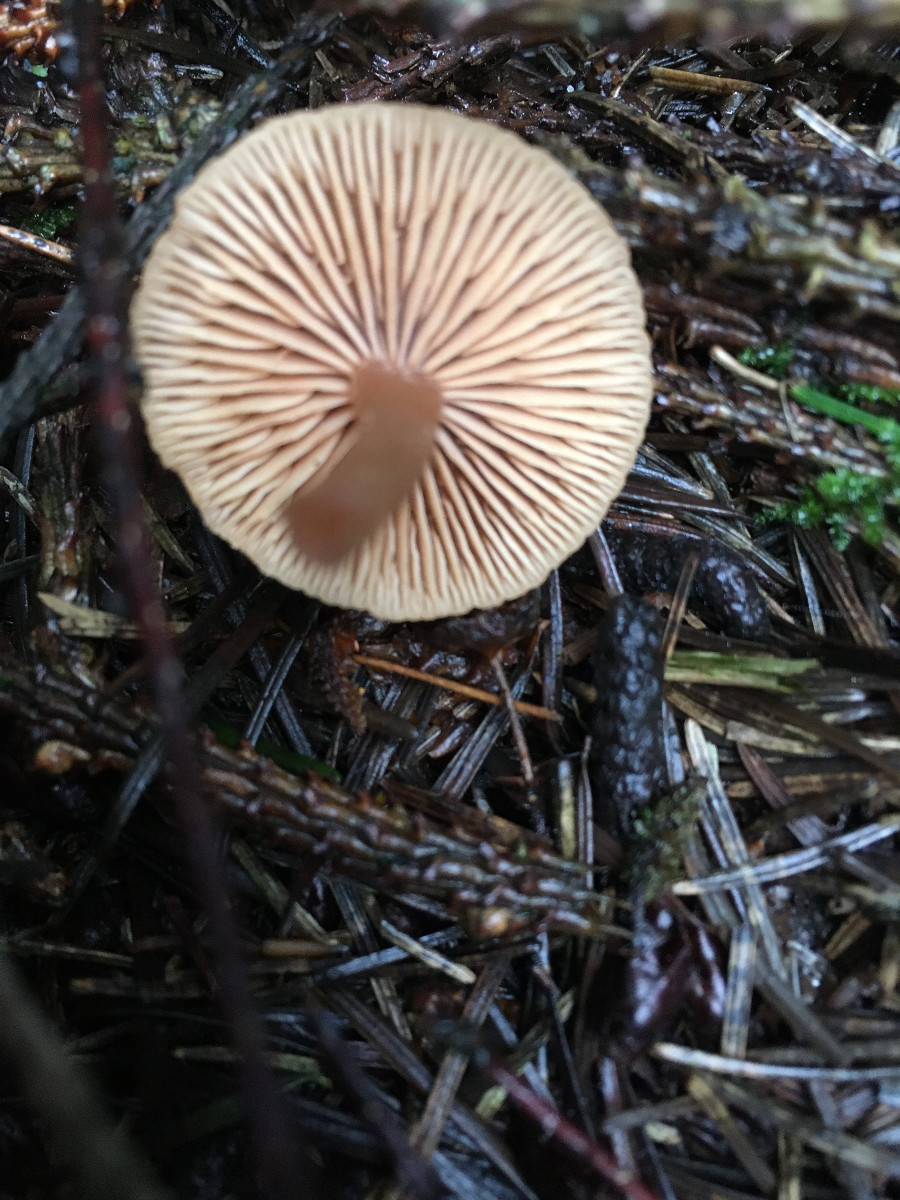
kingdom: Fungi
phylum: Basidiomycota
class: Agaricomycetes
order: Agaricales
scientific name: Agaricales
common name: champignonordenen
